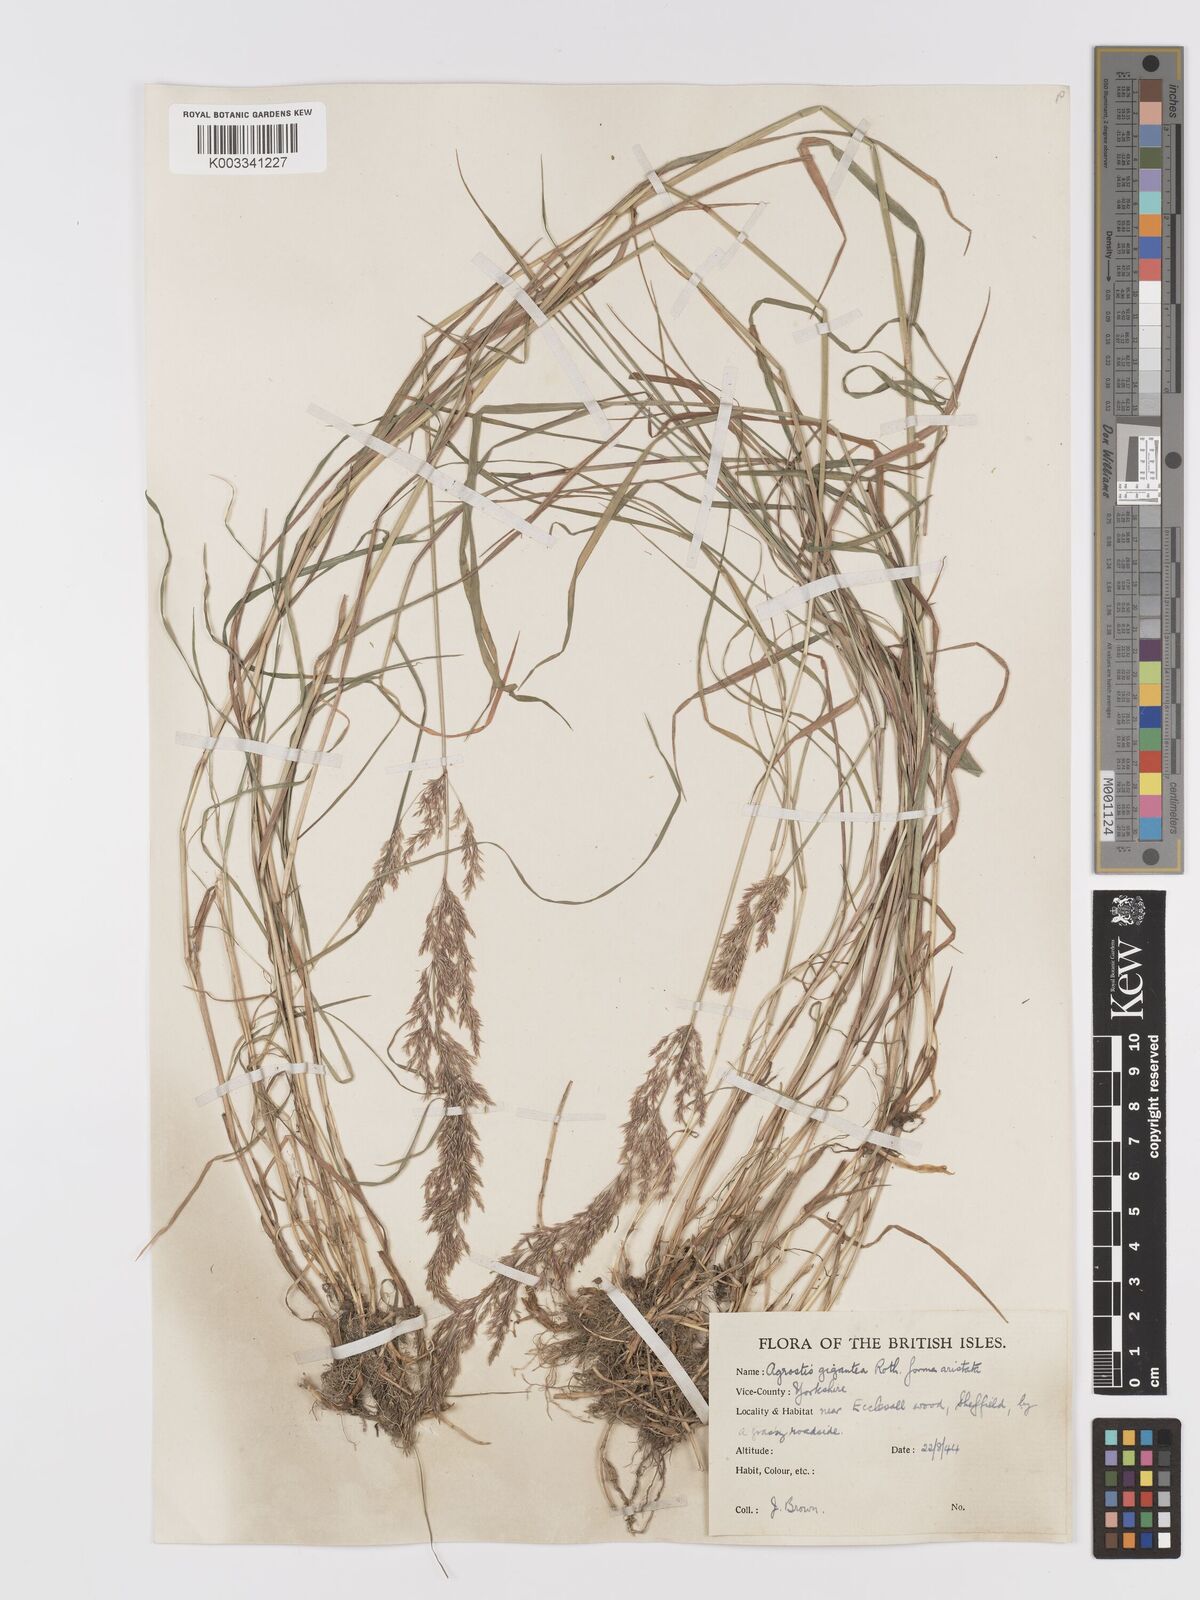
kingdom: Plantae
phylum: Tracheophyta
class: Liliopsida
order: Poales
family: Poaceae
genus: Agrostis
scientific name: Agrostis gigantea
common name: Black bent
